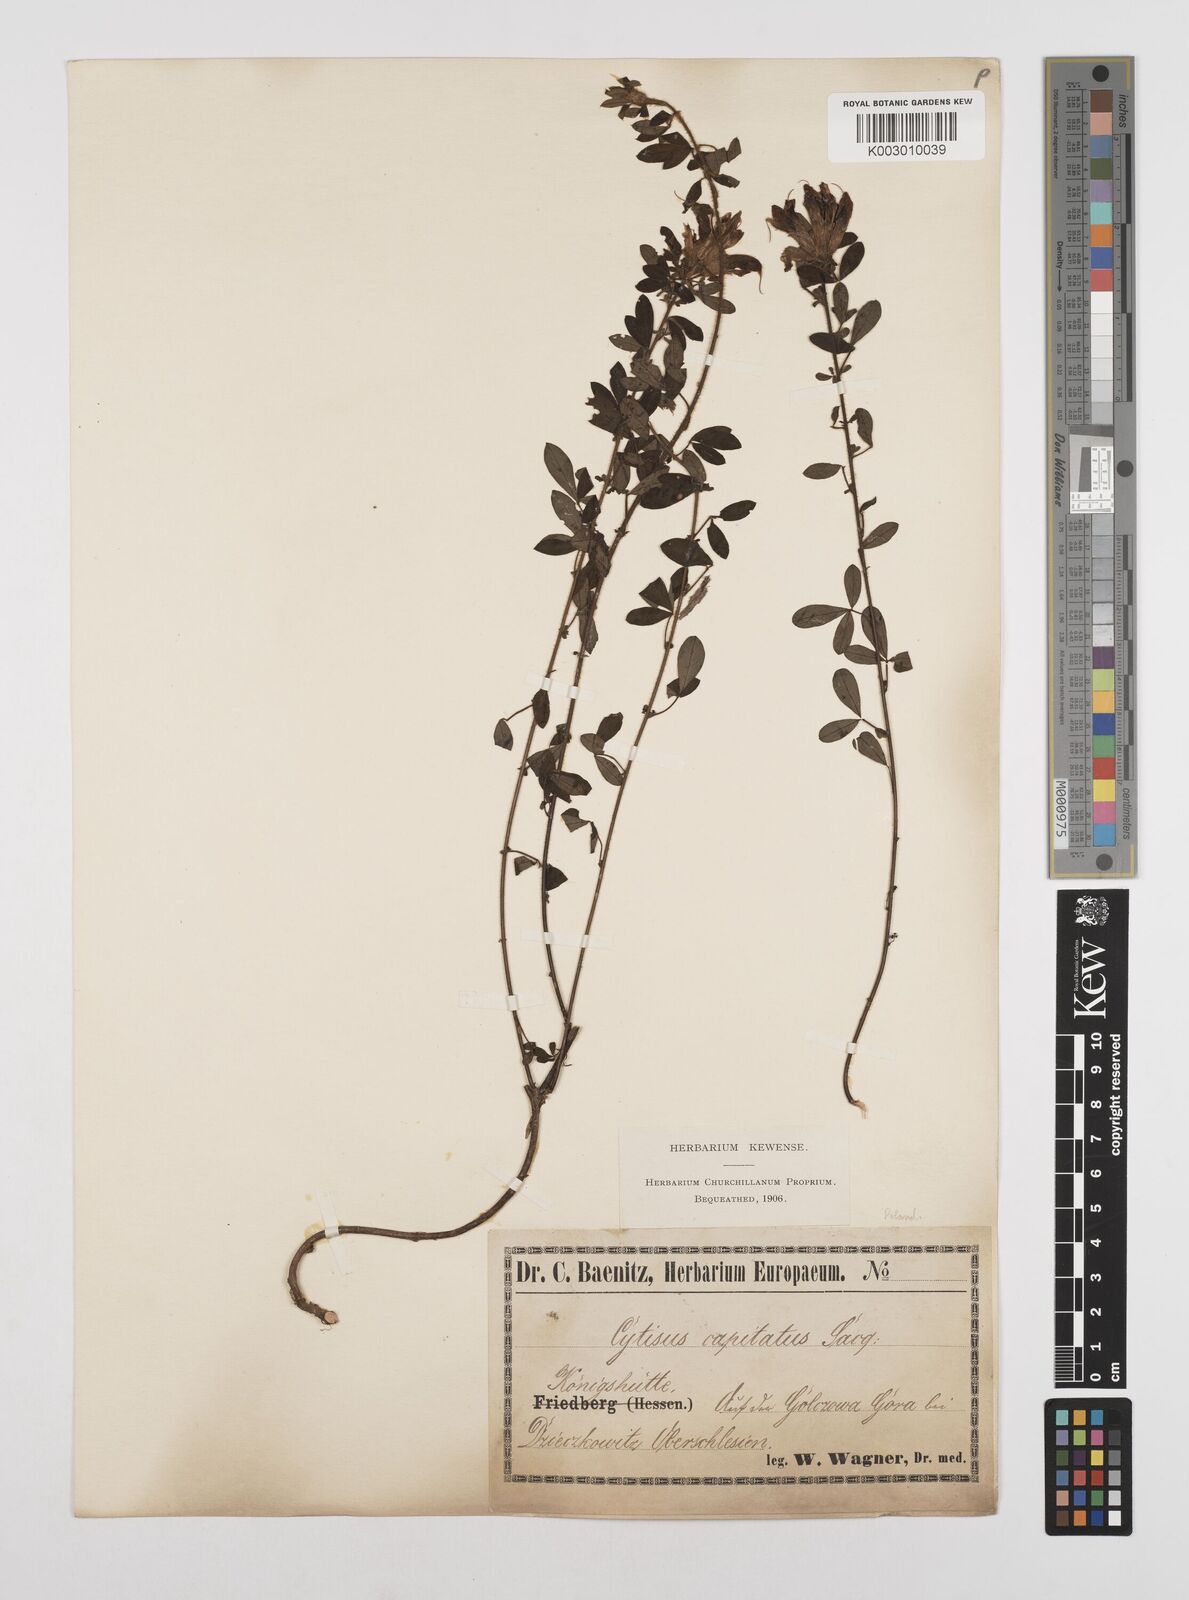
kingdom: Plantae
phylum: Tracheophyta
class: Magnoliopsida
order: Fabales
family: Fabaceae
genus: Chamaecytisus
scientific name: Chamaecytisus hirsutus
